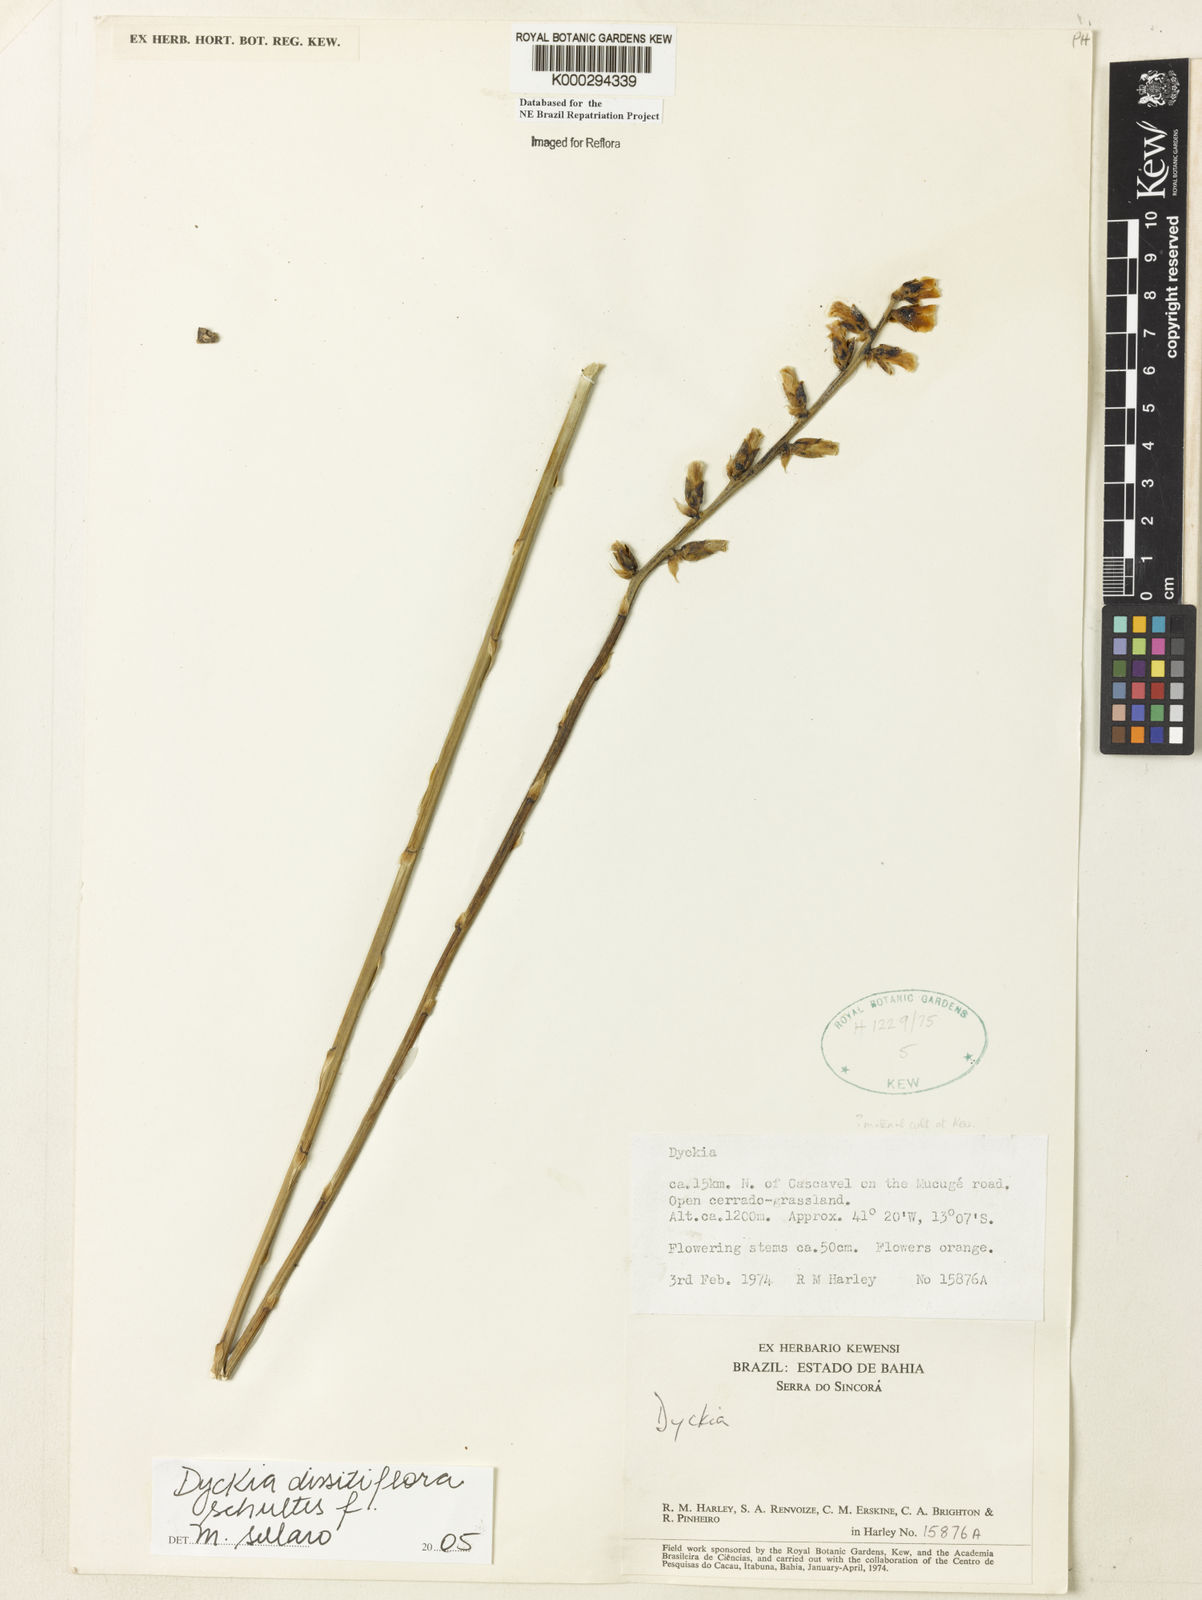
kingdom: Plantae
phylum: Tracheophyta
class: Liliopsida
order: Poales
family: Bromeliaceae
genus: Dyckia
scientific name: Dyckia dissitiflora
